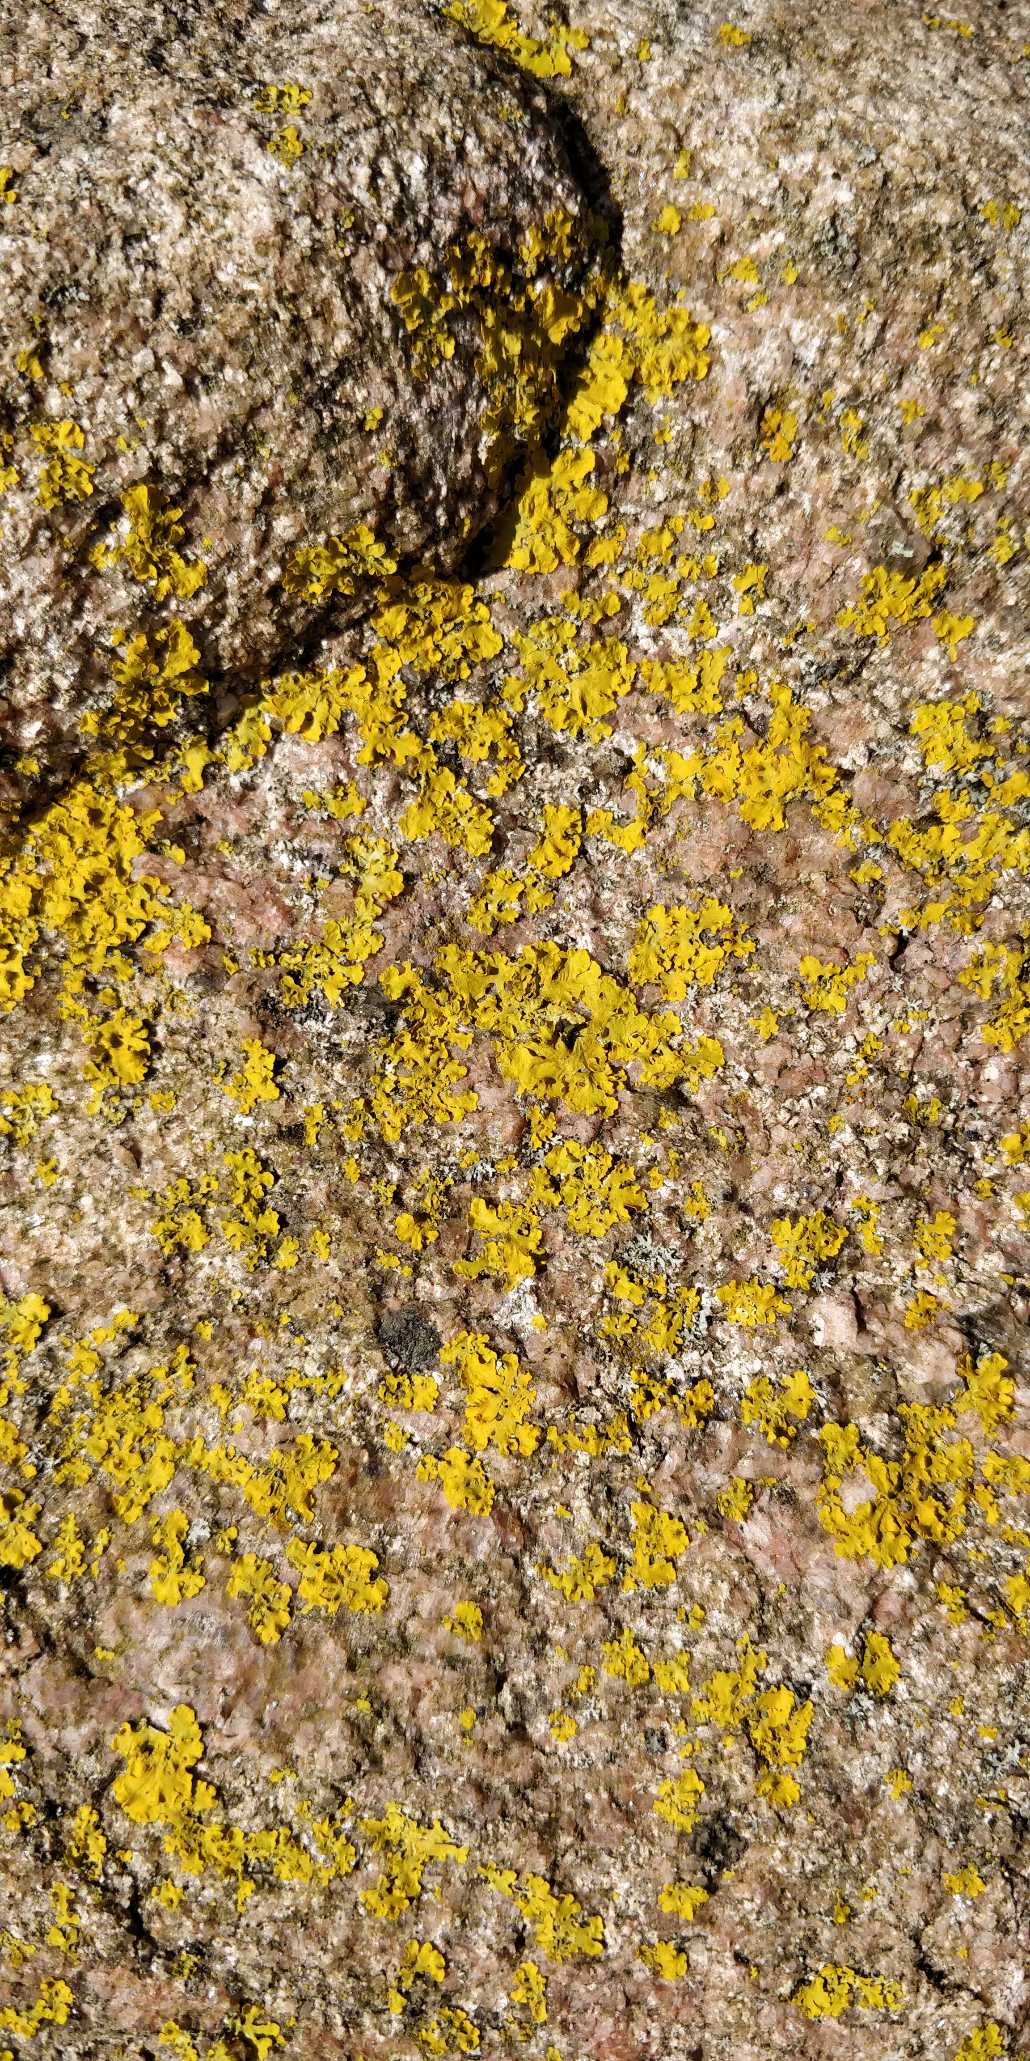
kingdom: Fungi
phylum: Ascomycota
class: Lecanoromycetes
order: Teloschistales
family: Teloschistaceae
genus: Xanthoria
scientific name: Xanthoria parietina
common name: Almindelig væggelav
